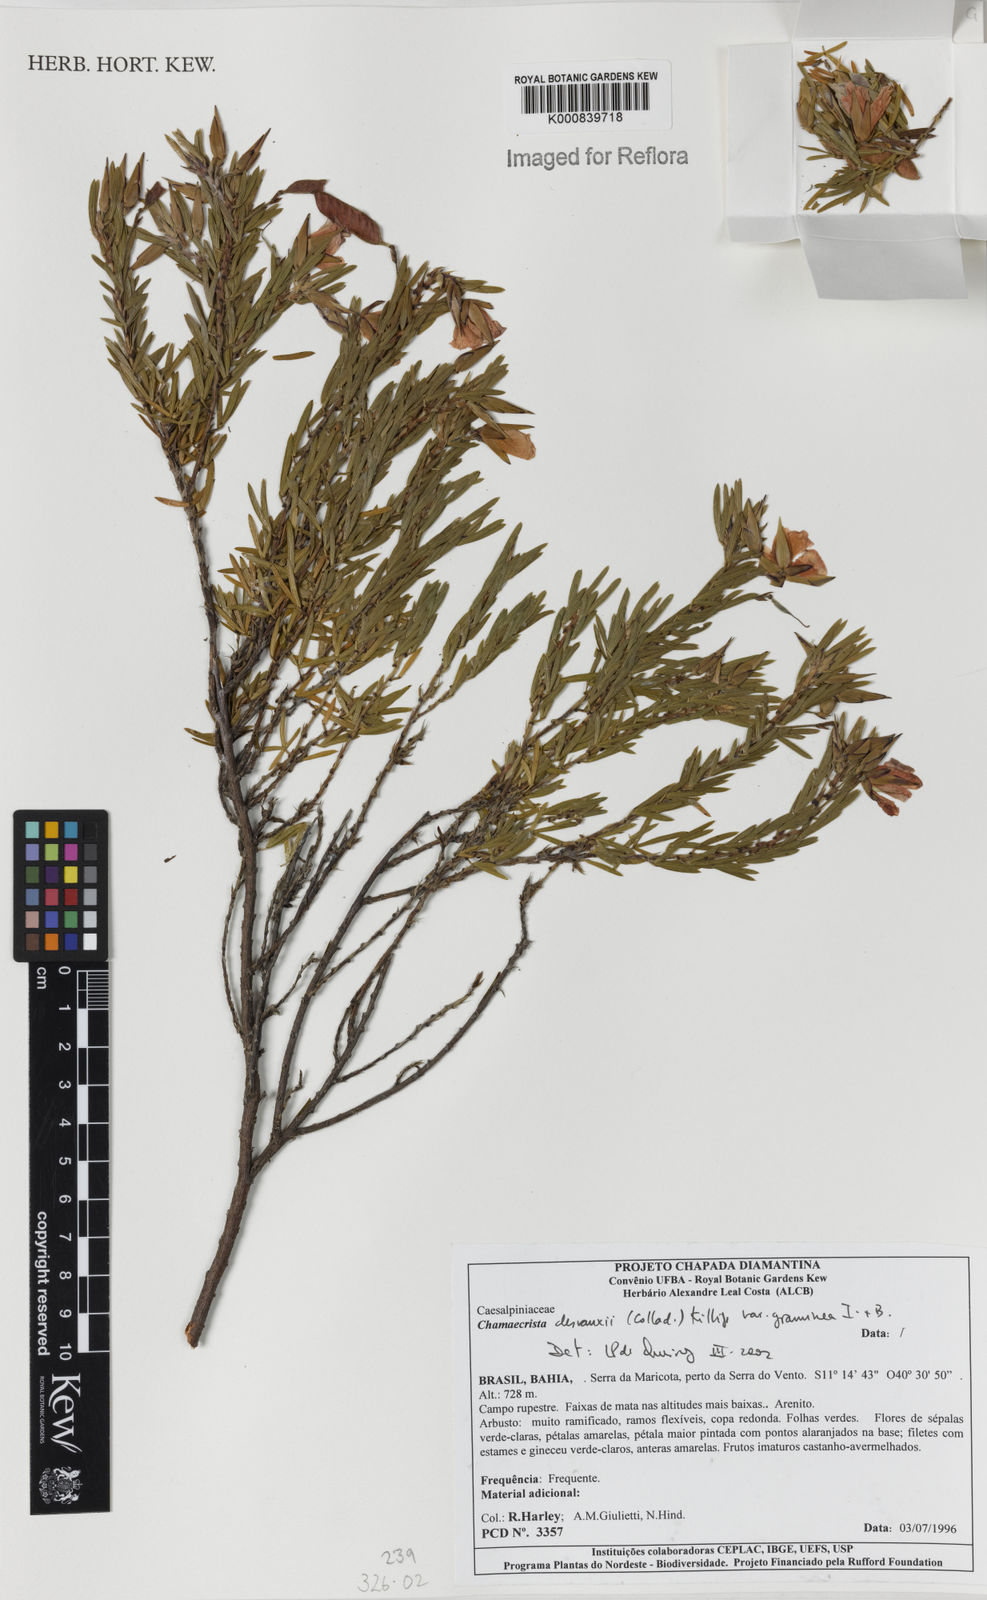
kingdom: Plantae
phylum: Tracheophyta
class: Magnoliopsida
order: Fabales
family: Fabaceae
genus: Chamaecrista
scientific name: Chamaecrista desvauxii
